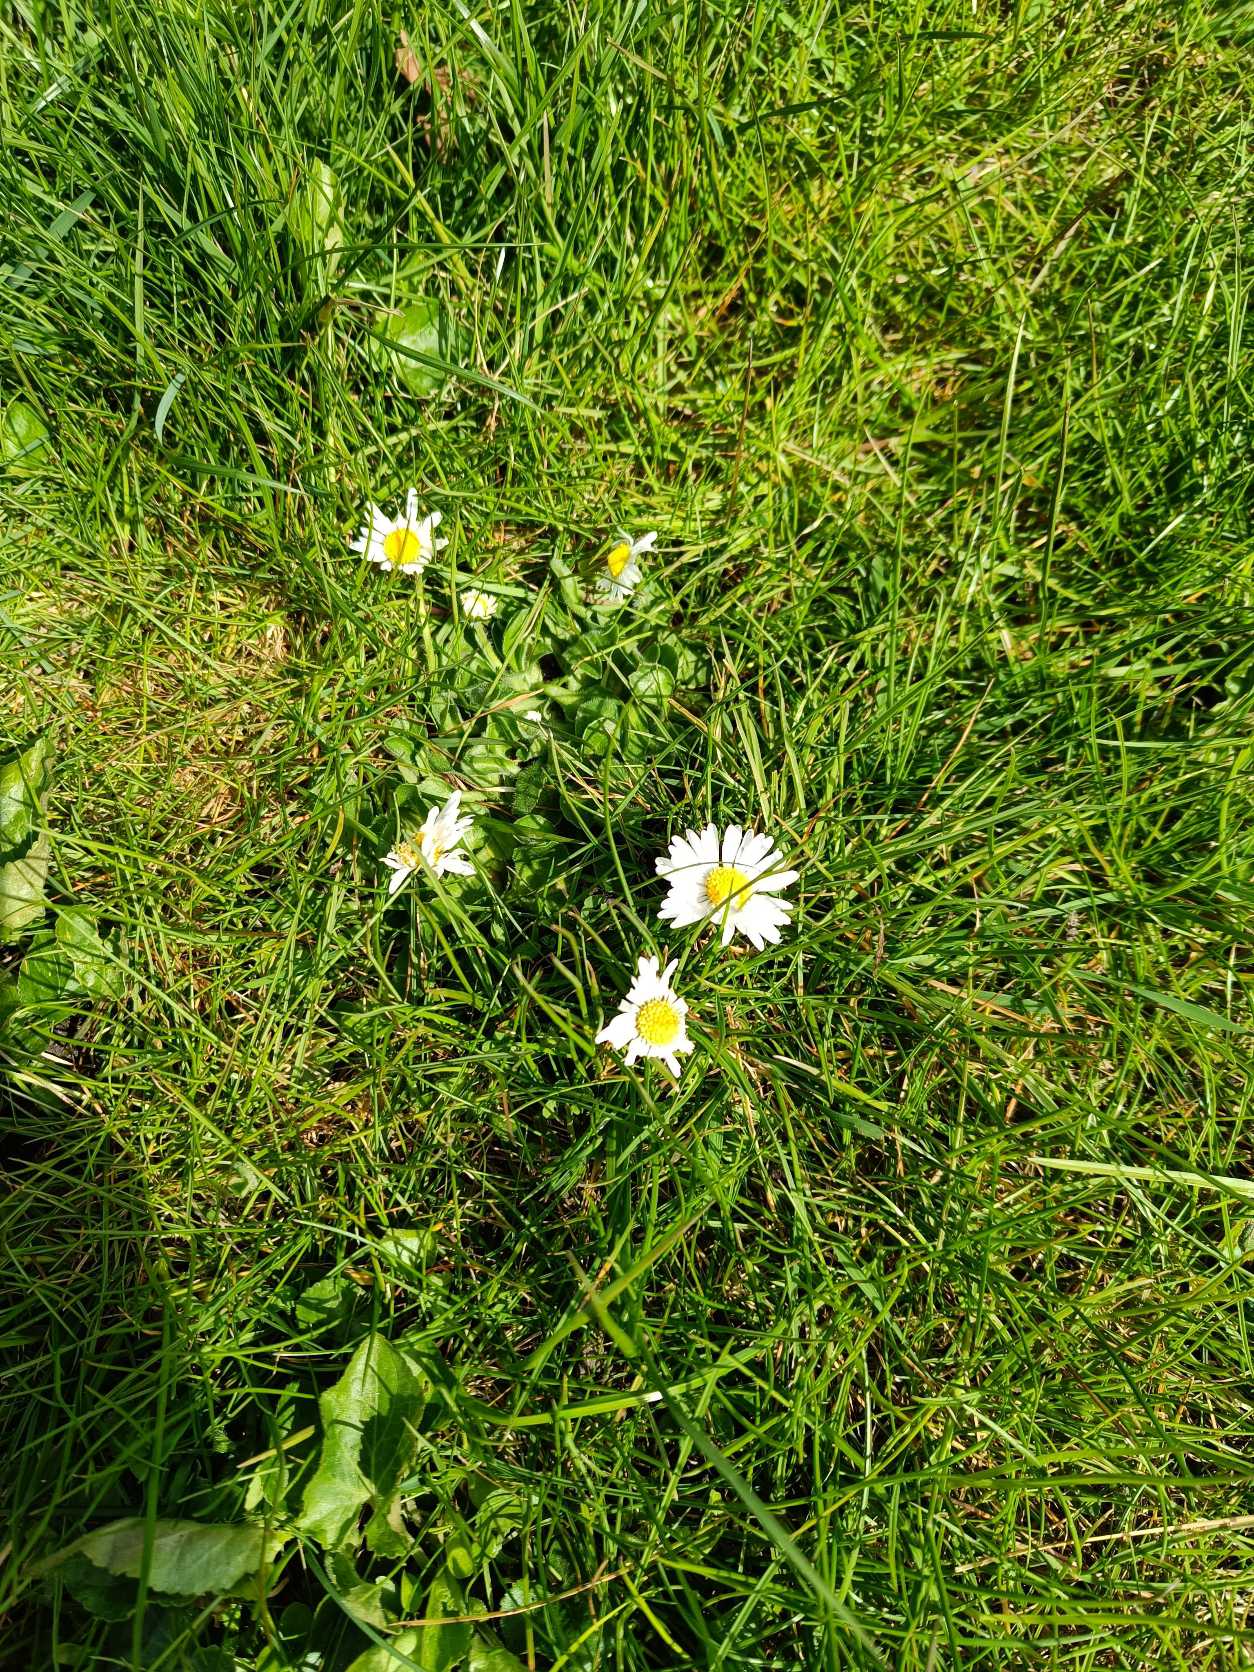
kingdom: Plantae
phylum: Tracheophyta
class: Magnoliopsida
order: Asterales
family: Asteraceae
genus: Bellis
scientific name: Bellis perennis
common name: Tusindfryd
